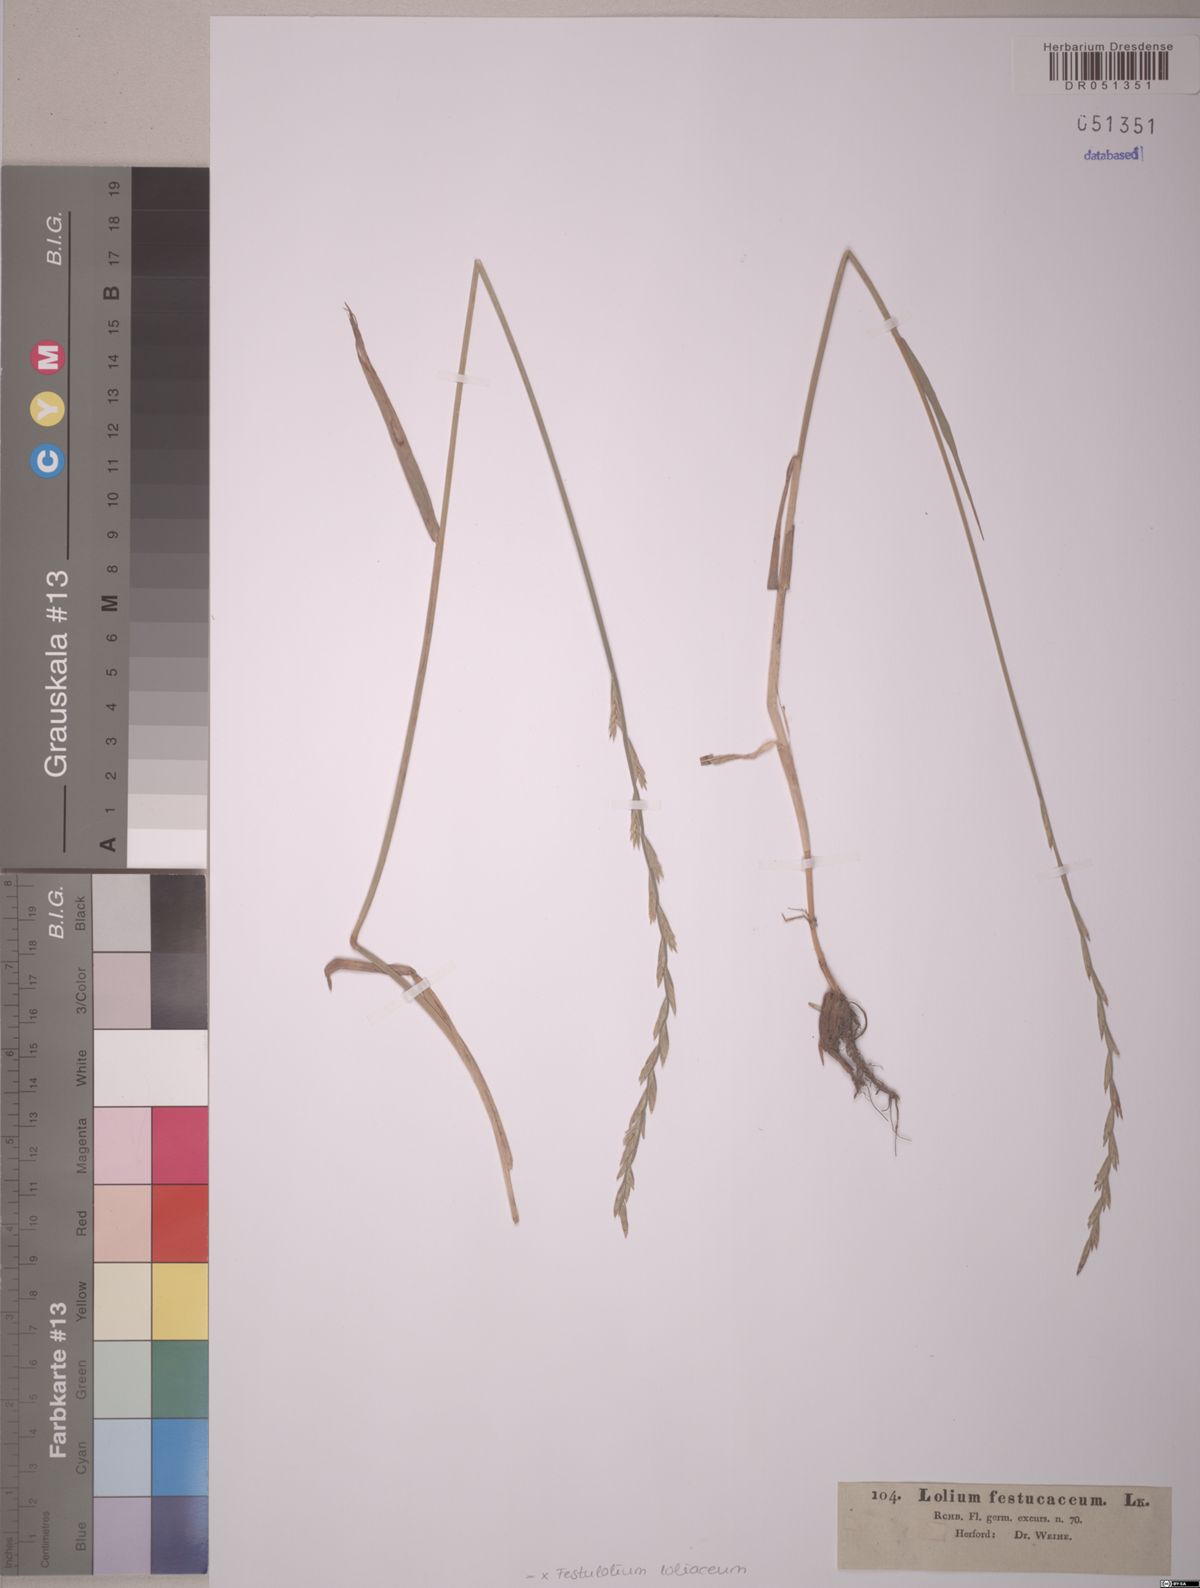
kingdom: Plantae
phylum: Tracheophyta
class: Liliopsida
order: Poales
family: Poaceae
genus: Lolium
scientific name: Lolium elongatum
